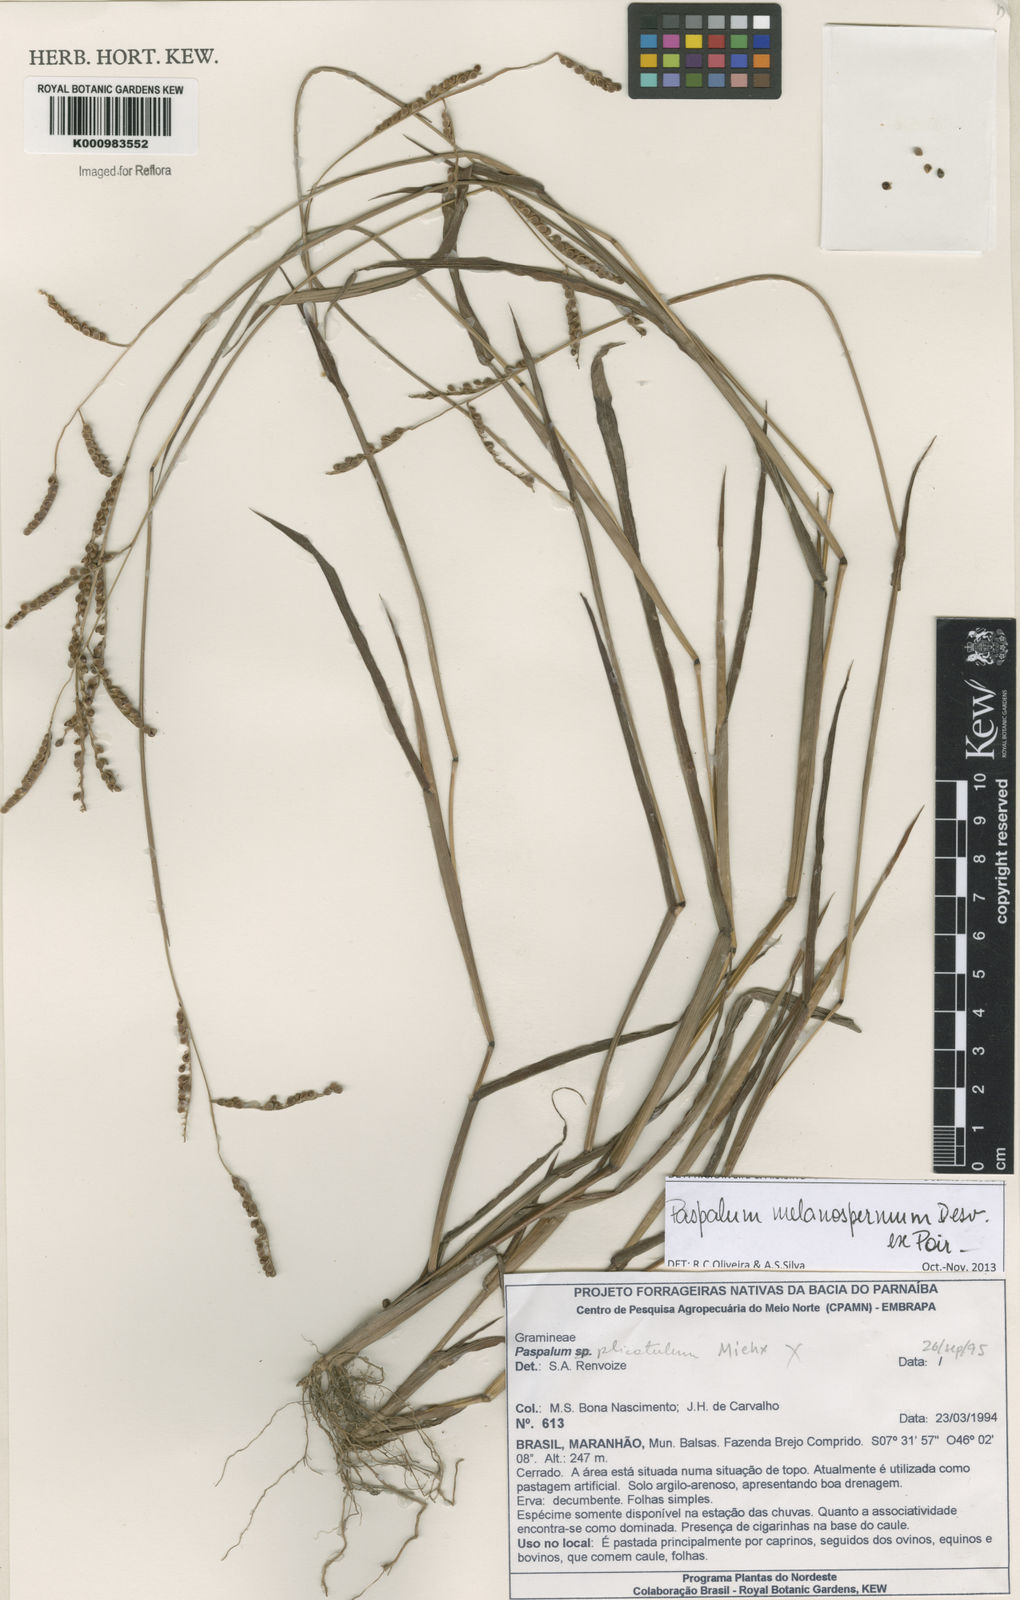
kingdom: Plantae
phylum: Tracheophyta
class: Liliopsida
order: Poales
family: Poaceae
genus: Paspalum
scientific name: Paspalum melanospermum
